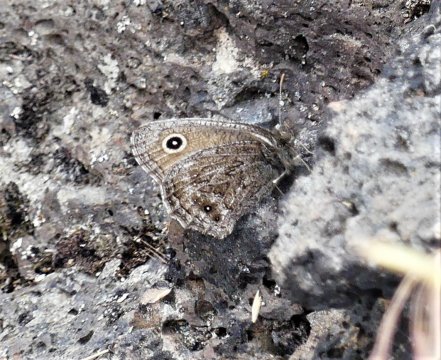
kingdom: Animalia
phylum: Arthropoda
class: Insecta
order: Lepidoptera
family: Nymphalidae
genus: Cercyonis
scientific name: Cercyonis oetus
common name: Small Wood-Nymph
